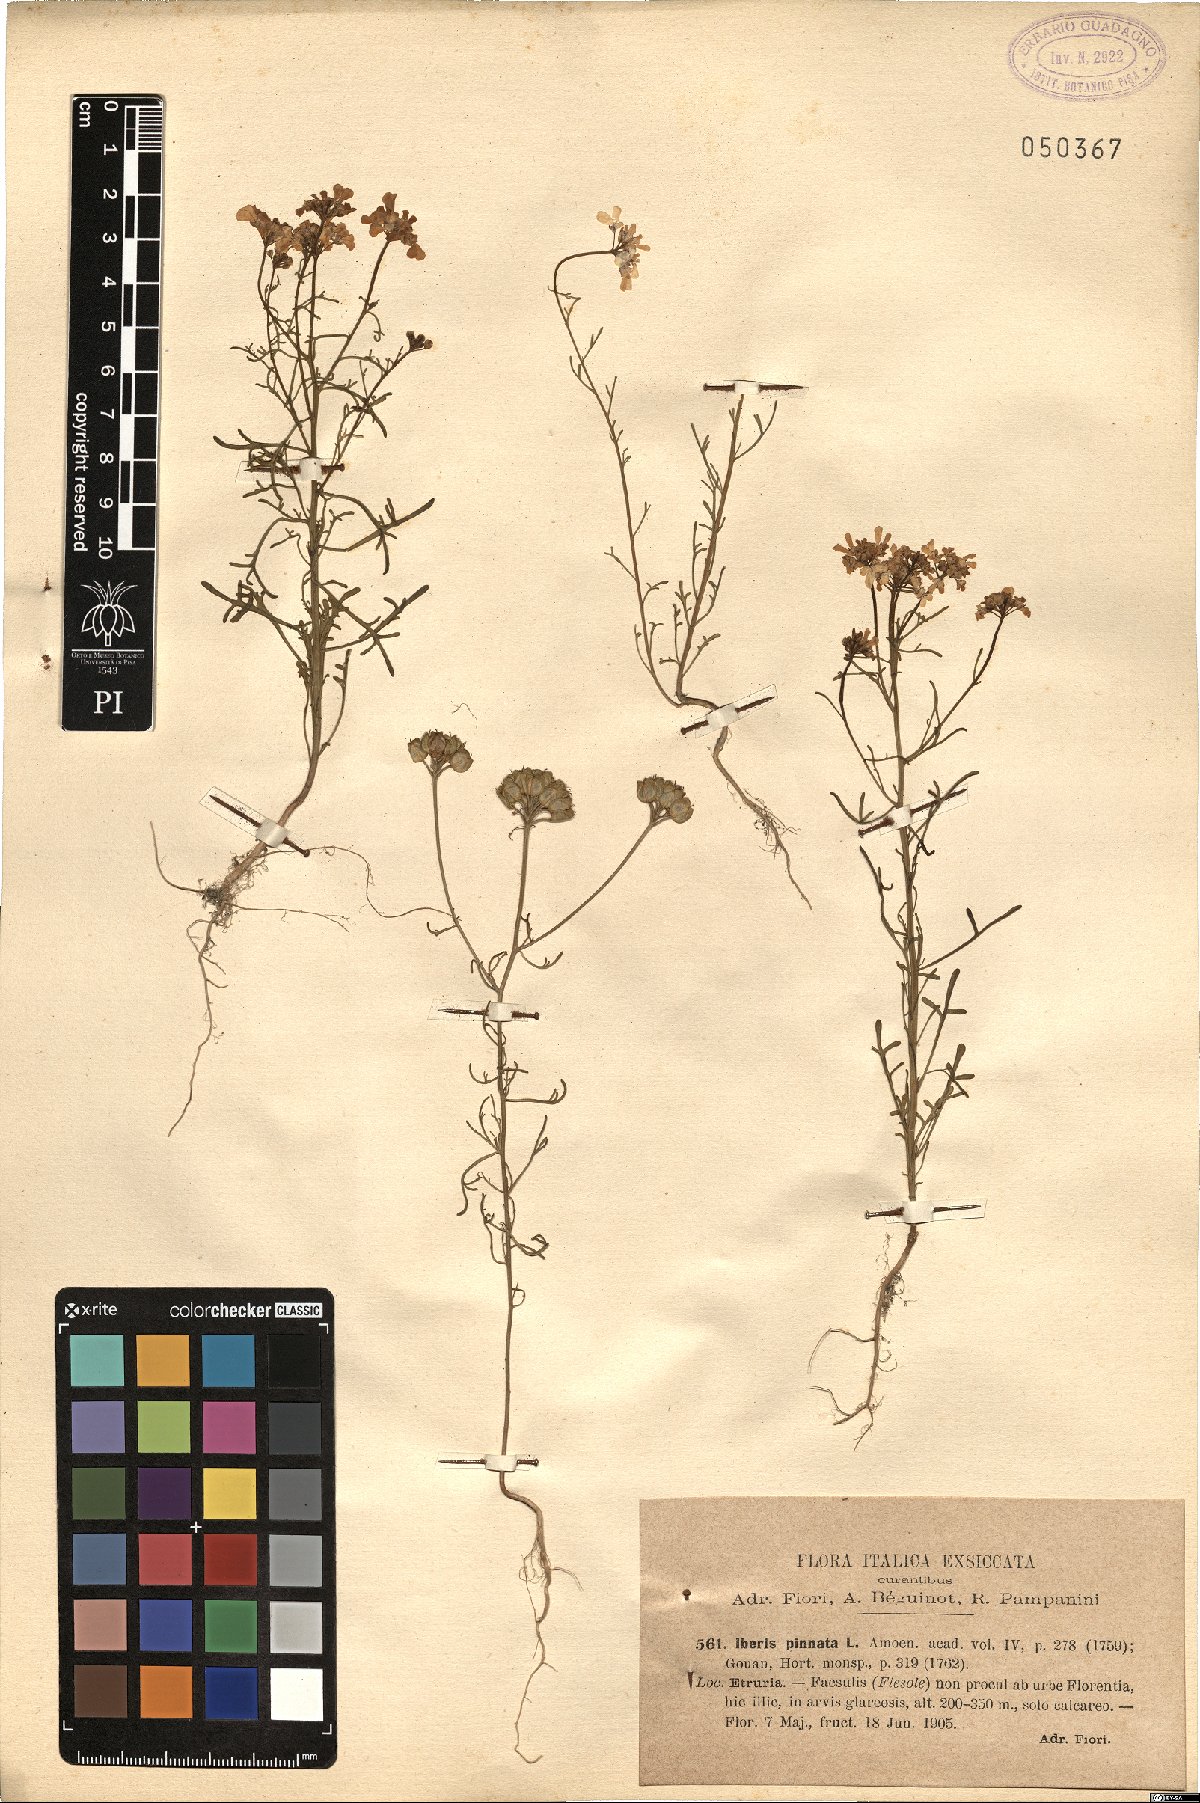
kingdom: Plantae
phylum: Tracheophyta
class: Magnoliopsida
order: Brassicales
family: Brassicaceae
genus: Iberis
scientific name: Iberis pinnata
